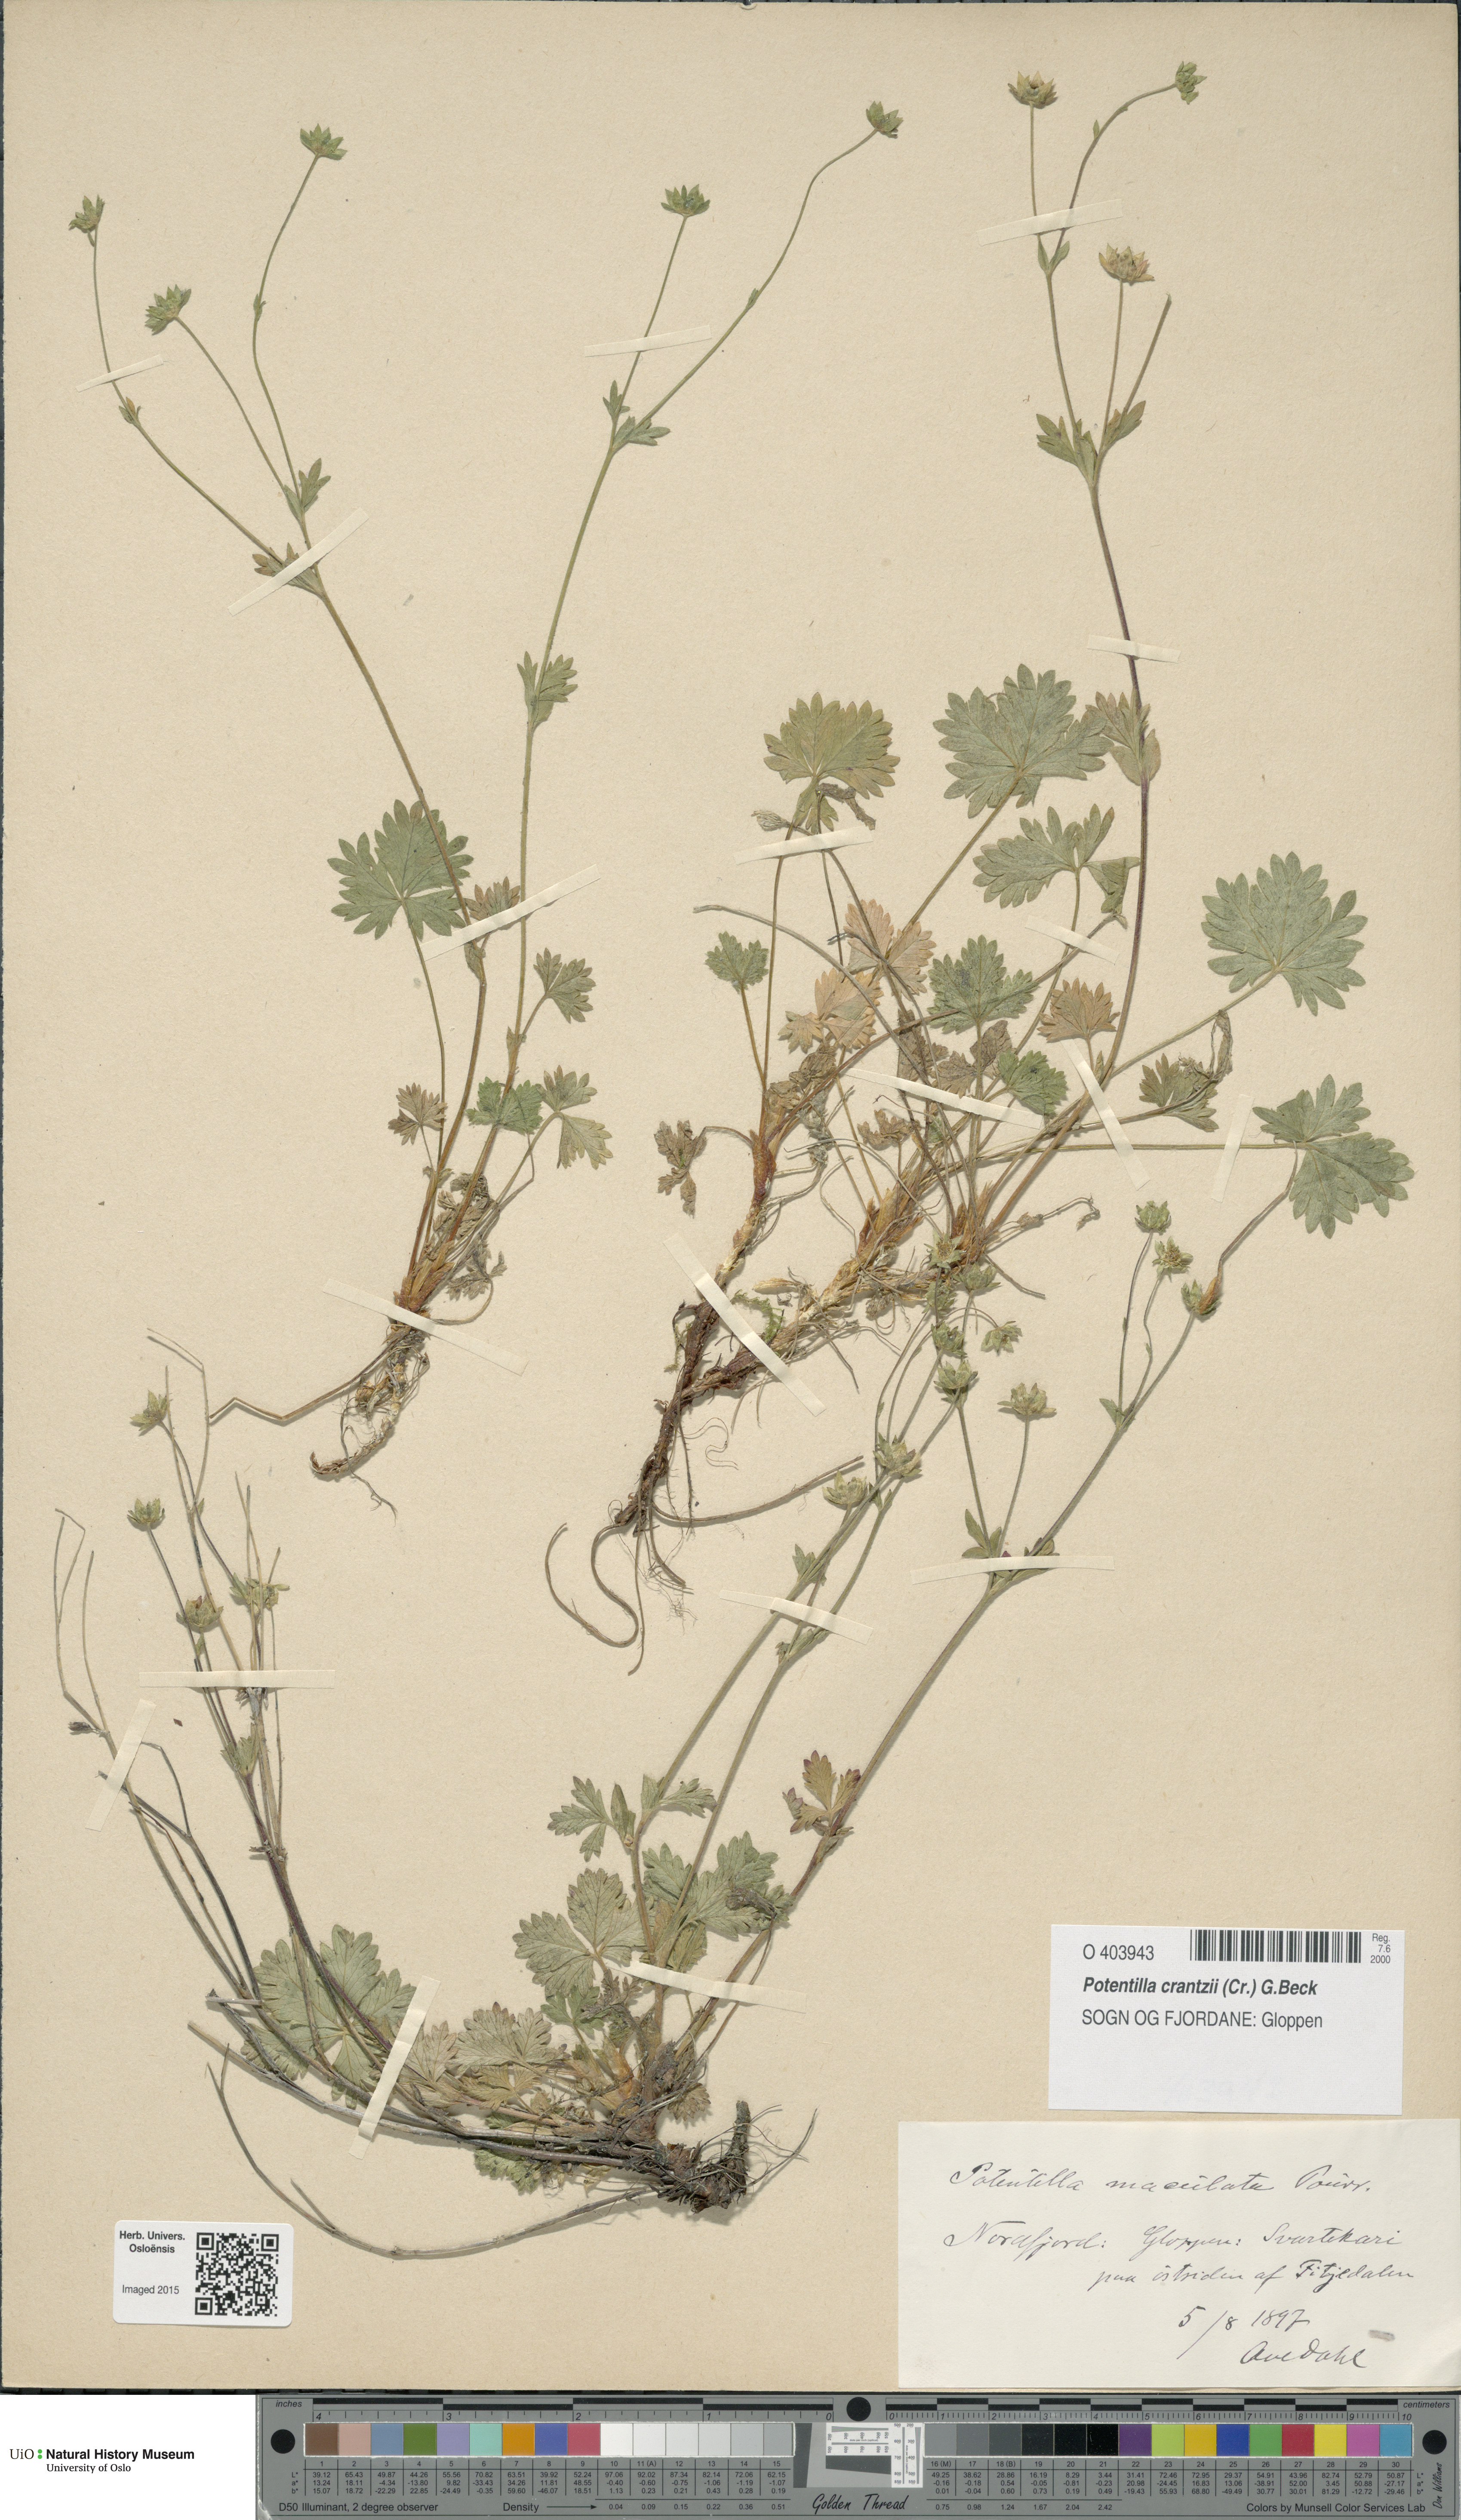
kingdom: Plantae
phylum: Tracheophyta
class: Magnoliopsida
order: Rosales
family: Rosaceae
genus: Potentilla
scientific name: Potentilla crantzii
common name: Alpine cinquefoil
